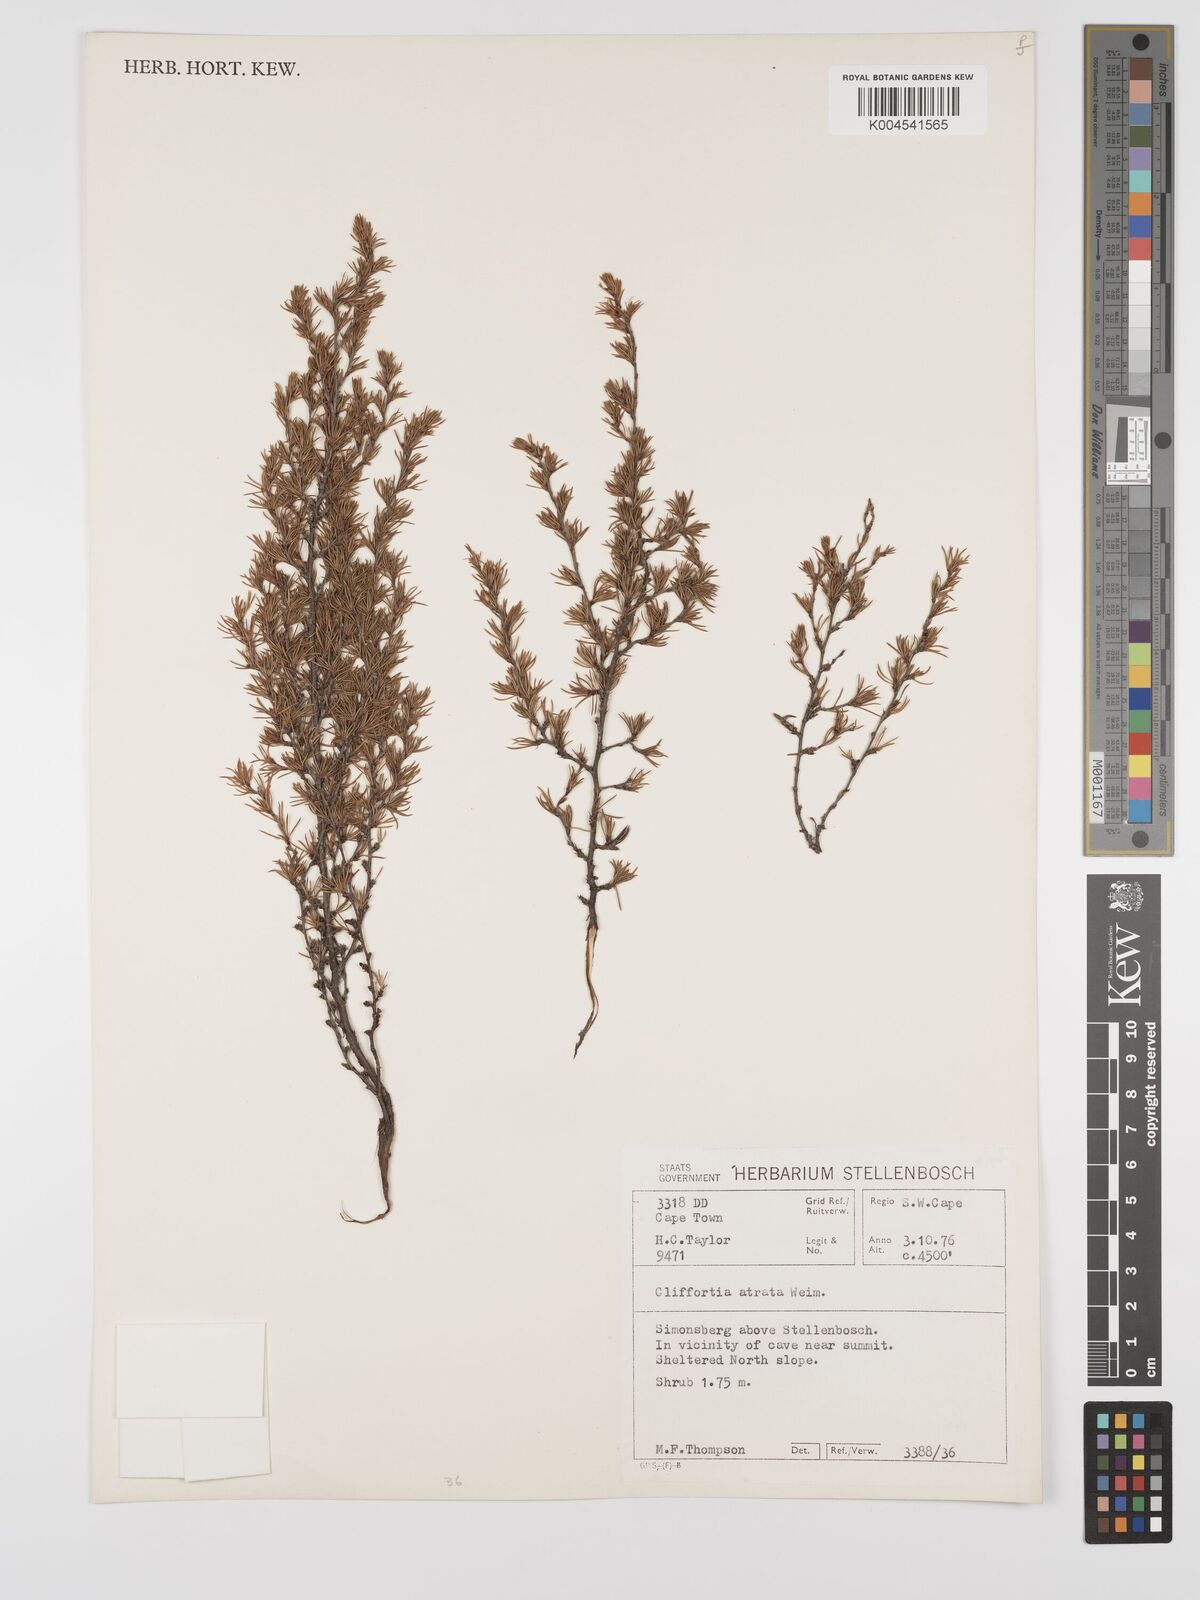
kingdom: Plantae
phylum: Tracheophyta
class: Magnoliopsida
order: Rosales
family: Rosaceae
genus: Cliffortia
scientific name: Cliffortia atrata
